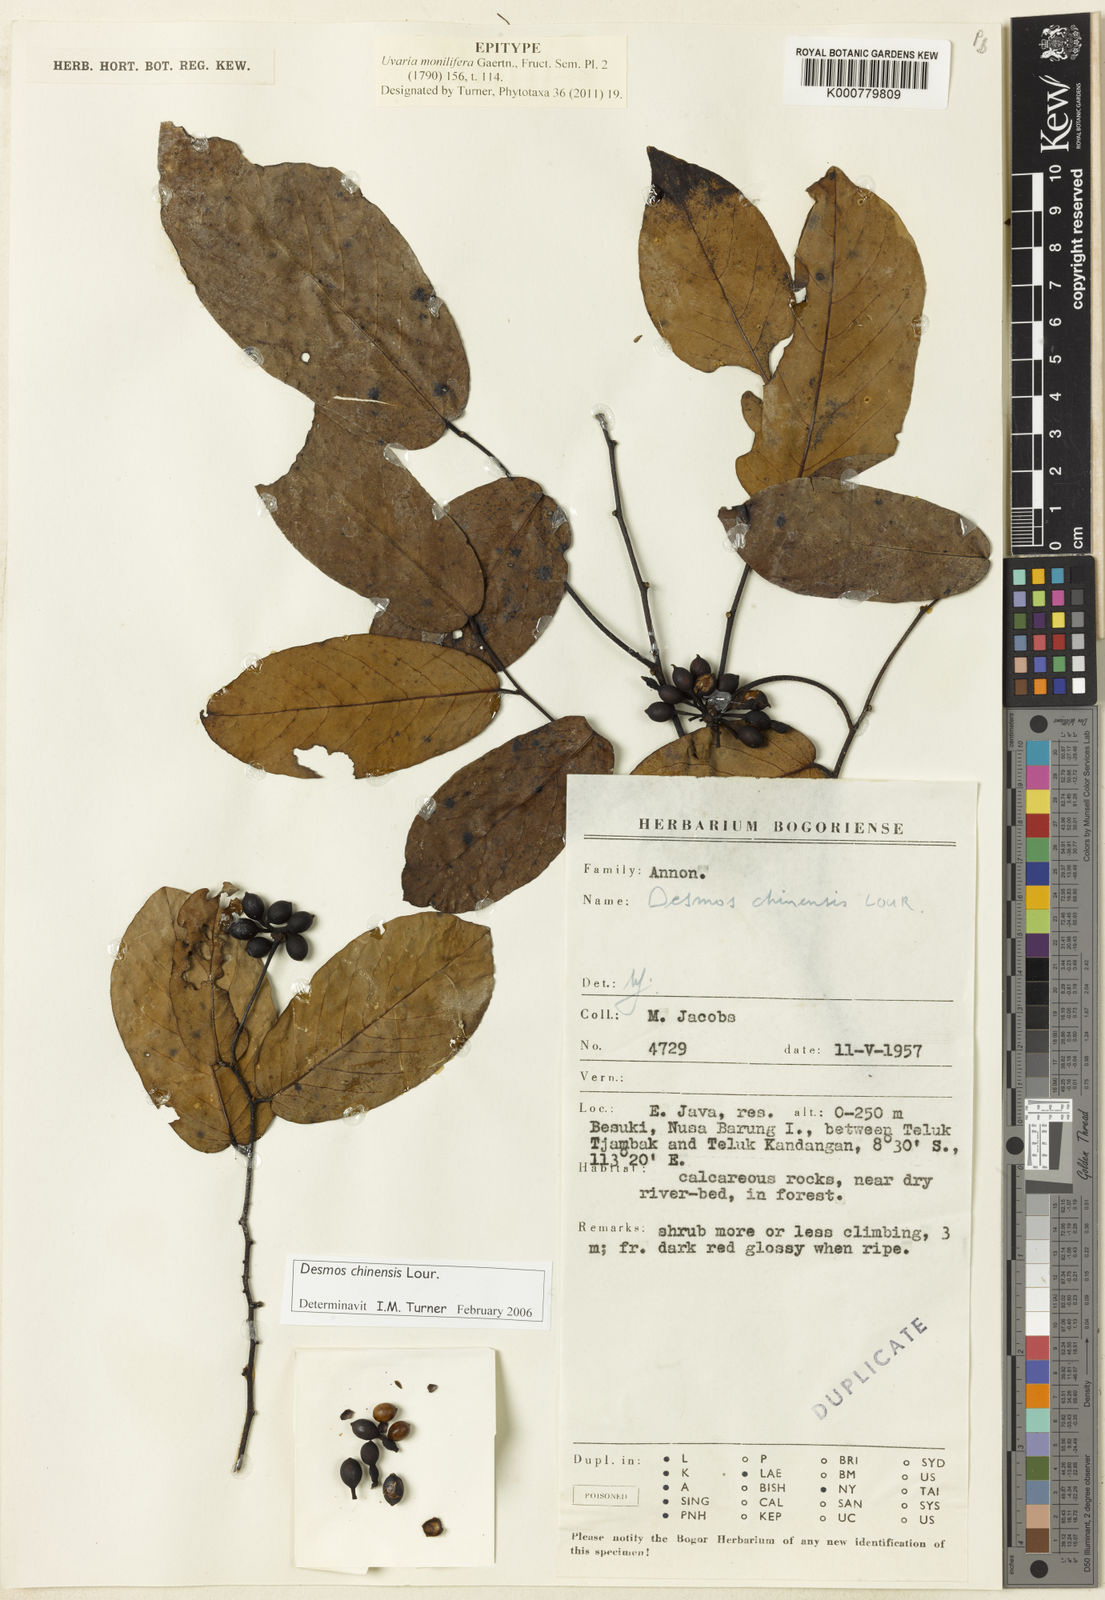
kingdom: Plantae
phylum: Tracheophyta
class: Magnoliopsida
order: Magnoliales
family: Annonaceae
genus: Desmos
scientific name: Desmos chinensis
